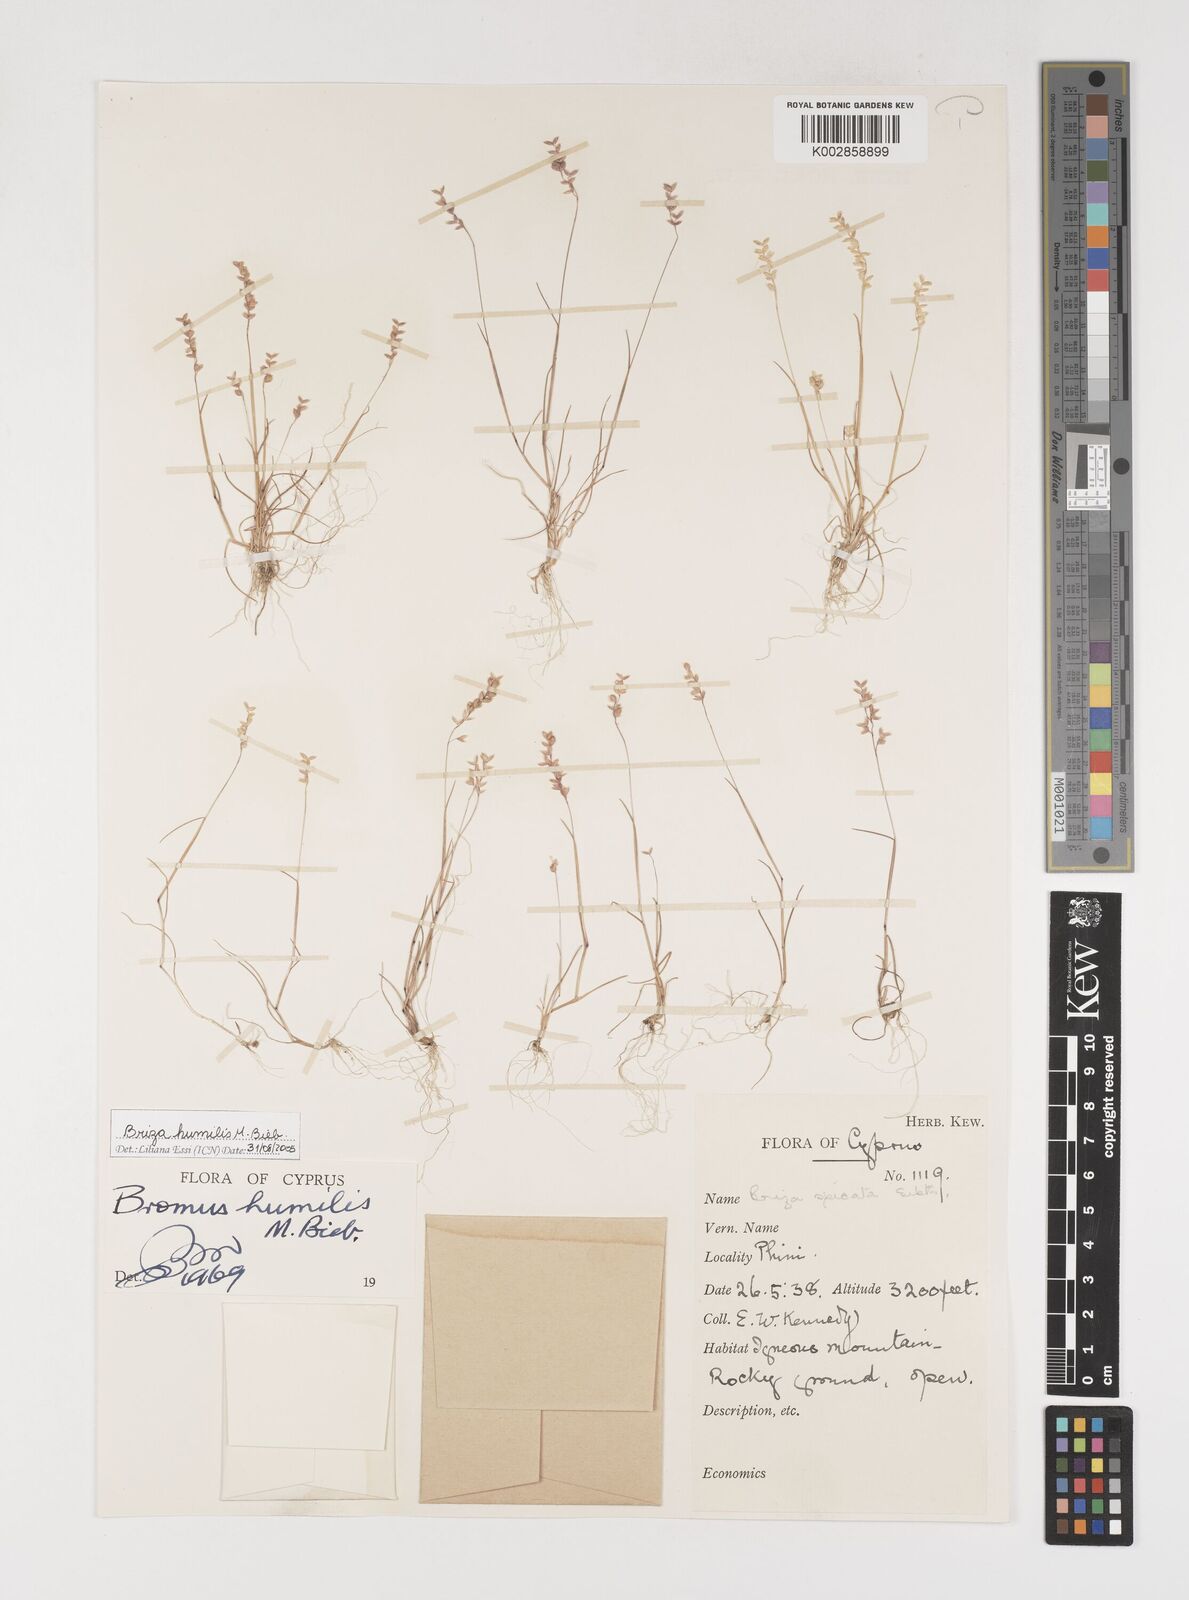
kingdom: Plantae
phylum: Tracheophyta
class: Liliopsida
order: Poales
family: Poaceae
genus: Briza
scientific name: Briza humilis
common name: Spiked quaking grass
